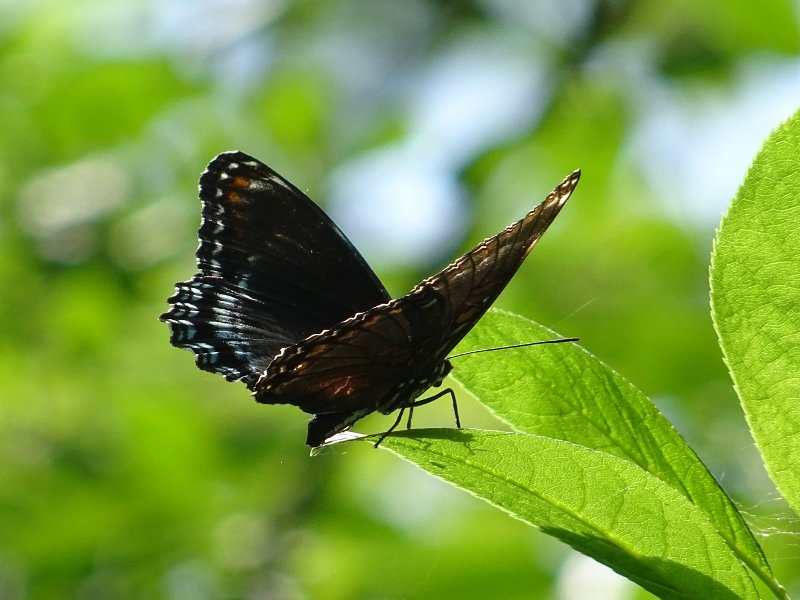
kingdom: Animalia
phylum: Arthropoda
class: Insecta
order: Lepidoptera
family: Nymphalidae
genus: Limenitis
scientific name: Limenitis astyanax
